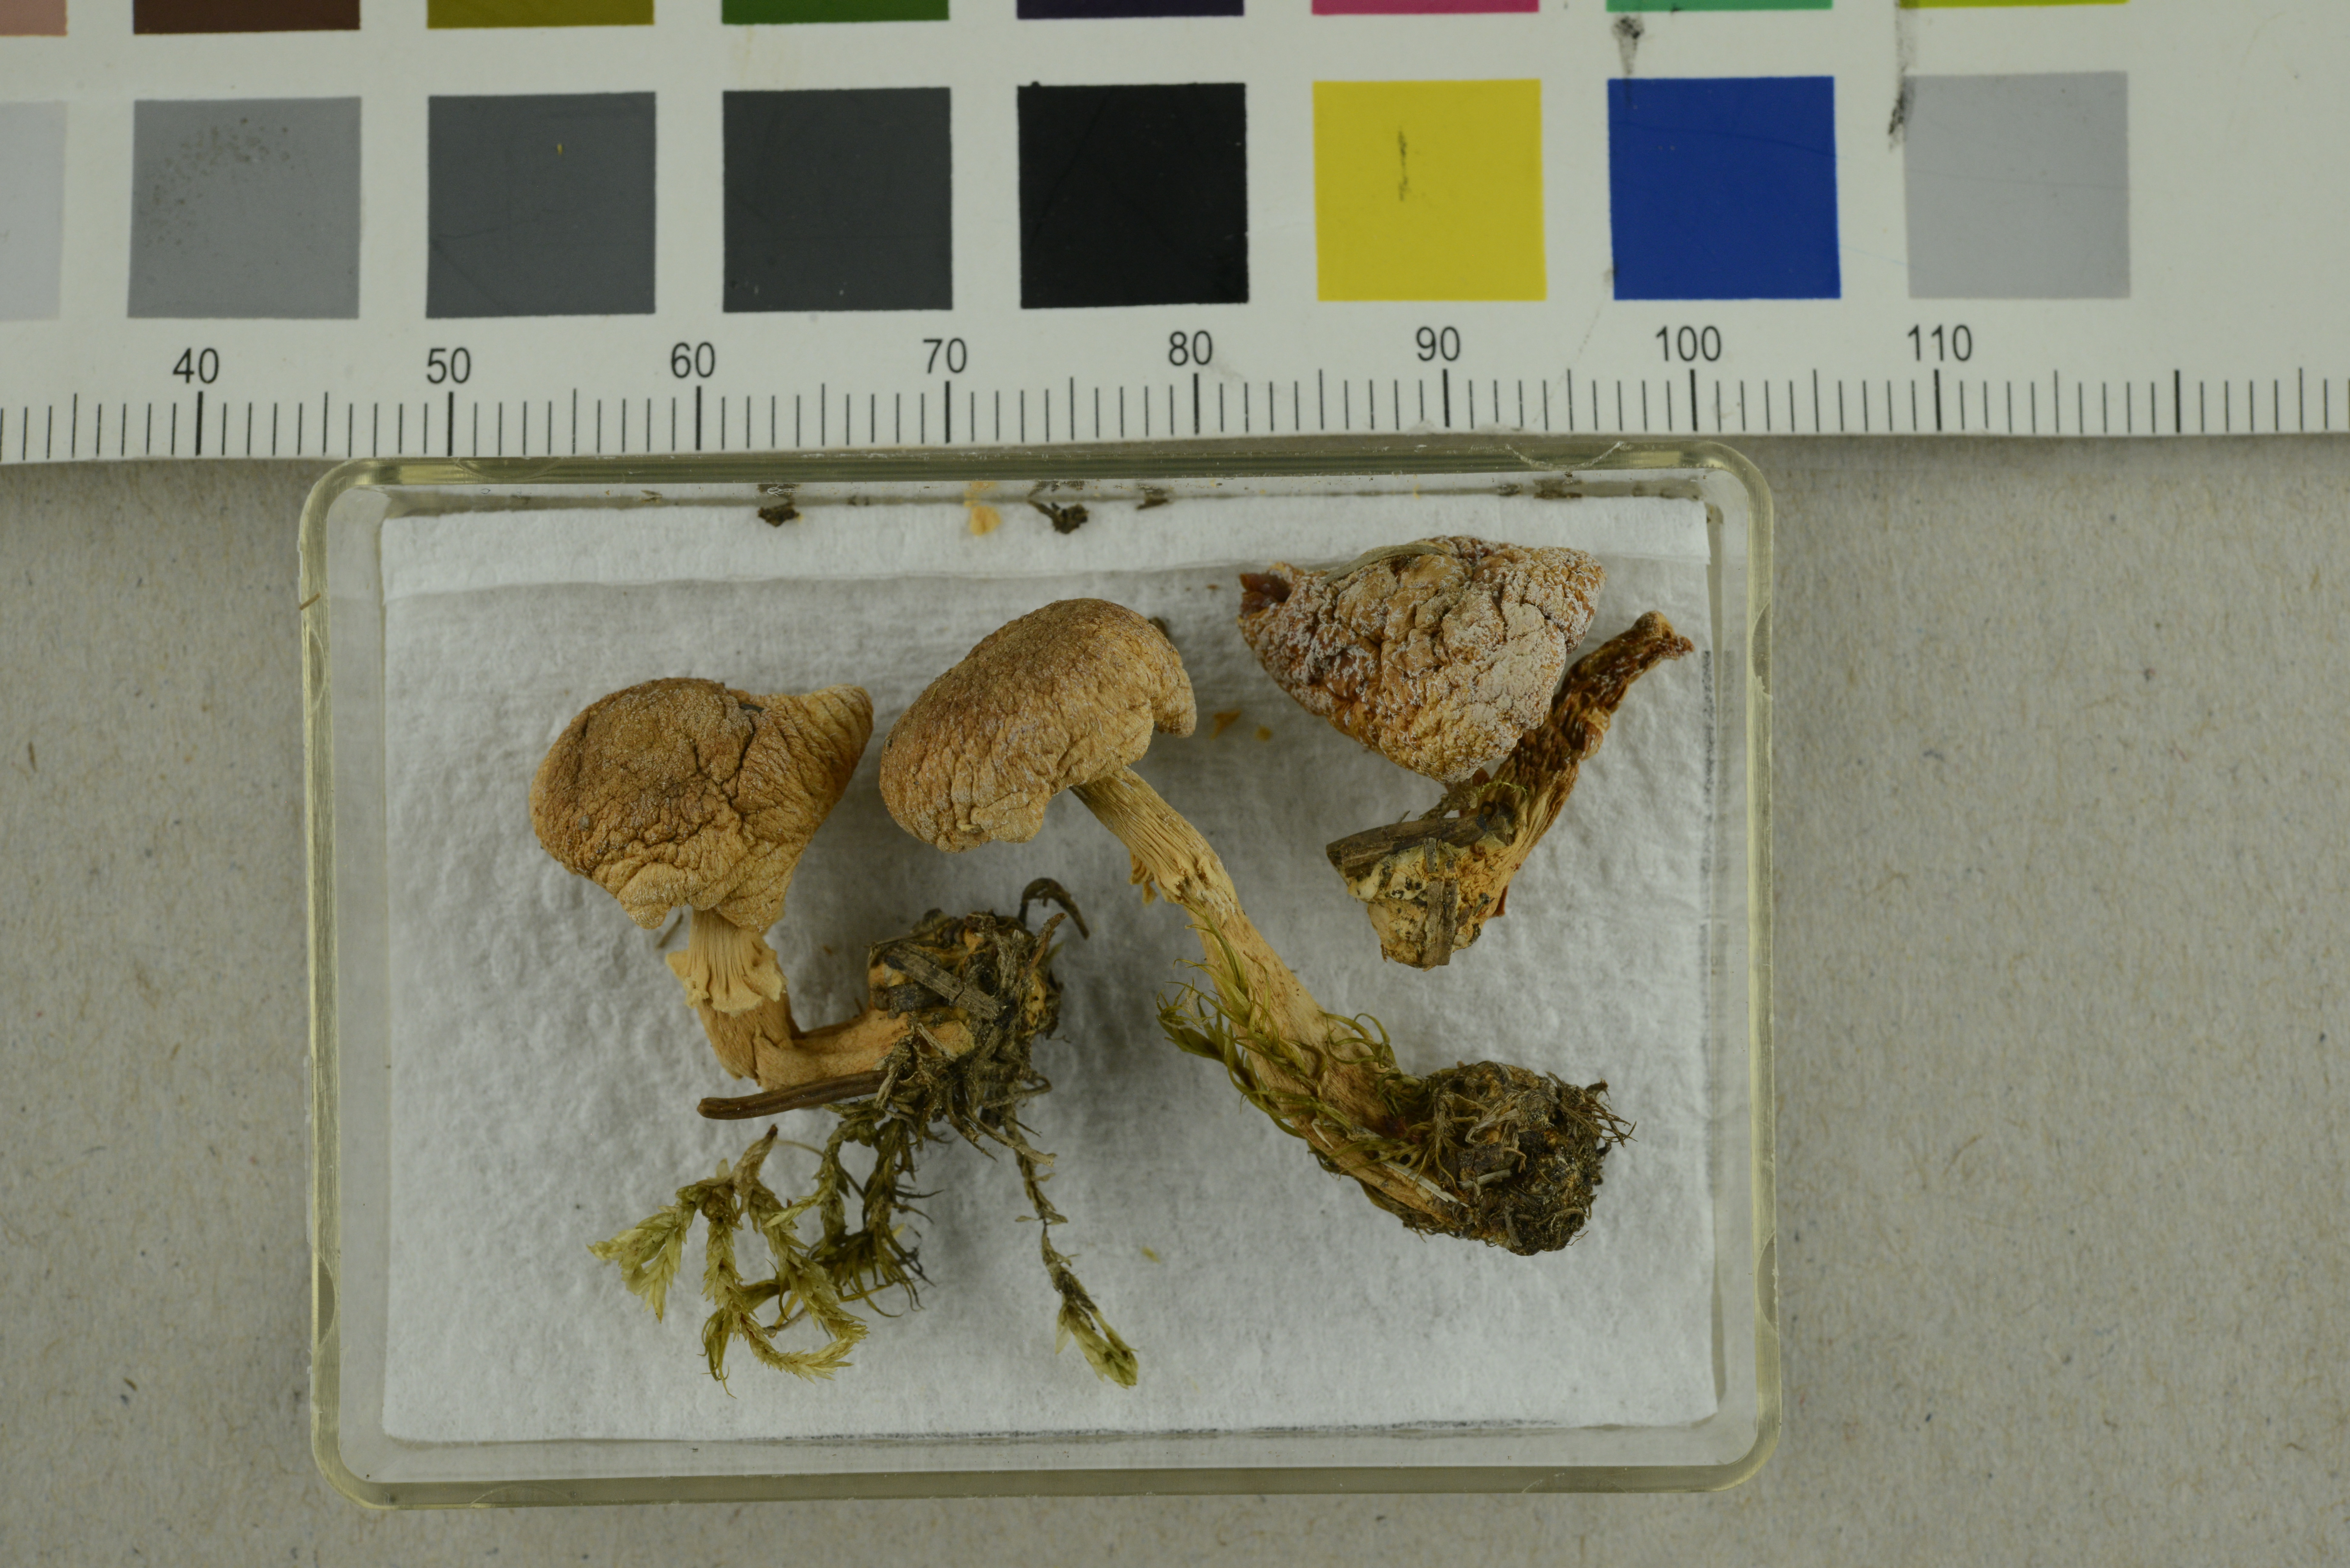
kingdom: Fungi
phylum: Basidiomycota
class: Agaricomycetes
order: Agaricales
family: Agaricaceae
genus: Agaricus
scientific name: Agaricus luteomaculatus
